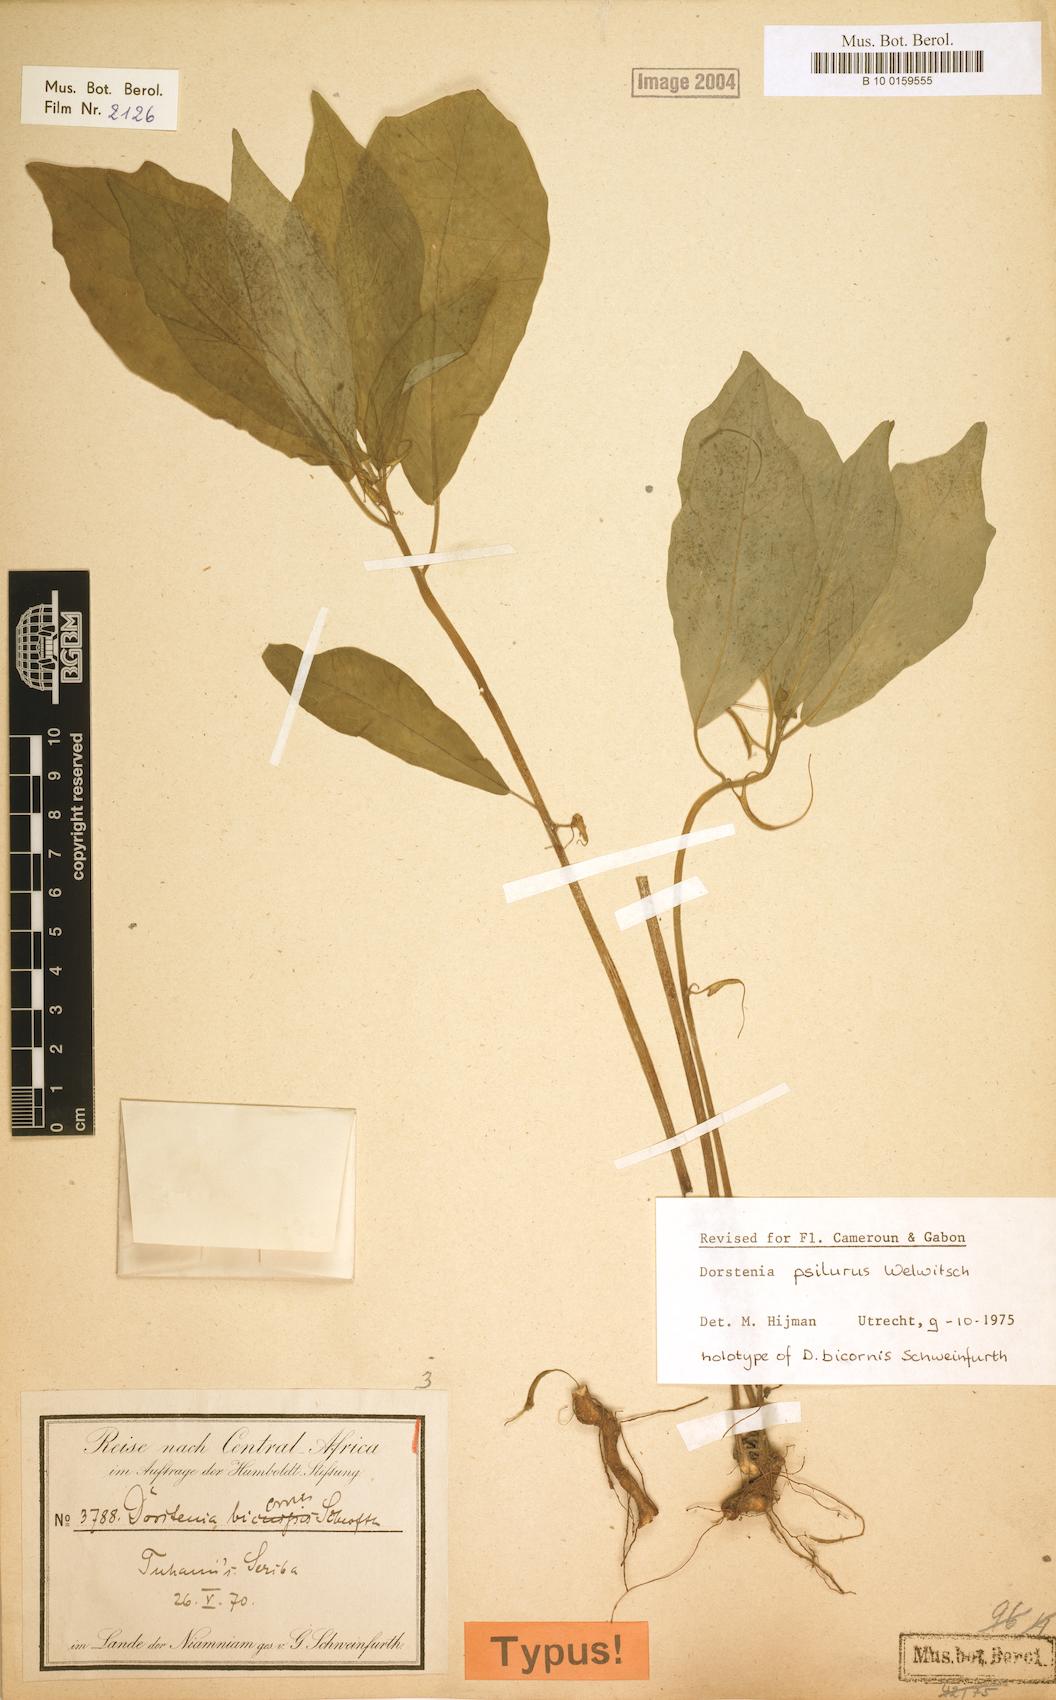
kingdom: Plantae
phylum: Tracheophyta
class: Magnoliopsida
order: Rosales
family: Moraceae
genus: Dorstenia
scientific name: Dorstenia psilurus
